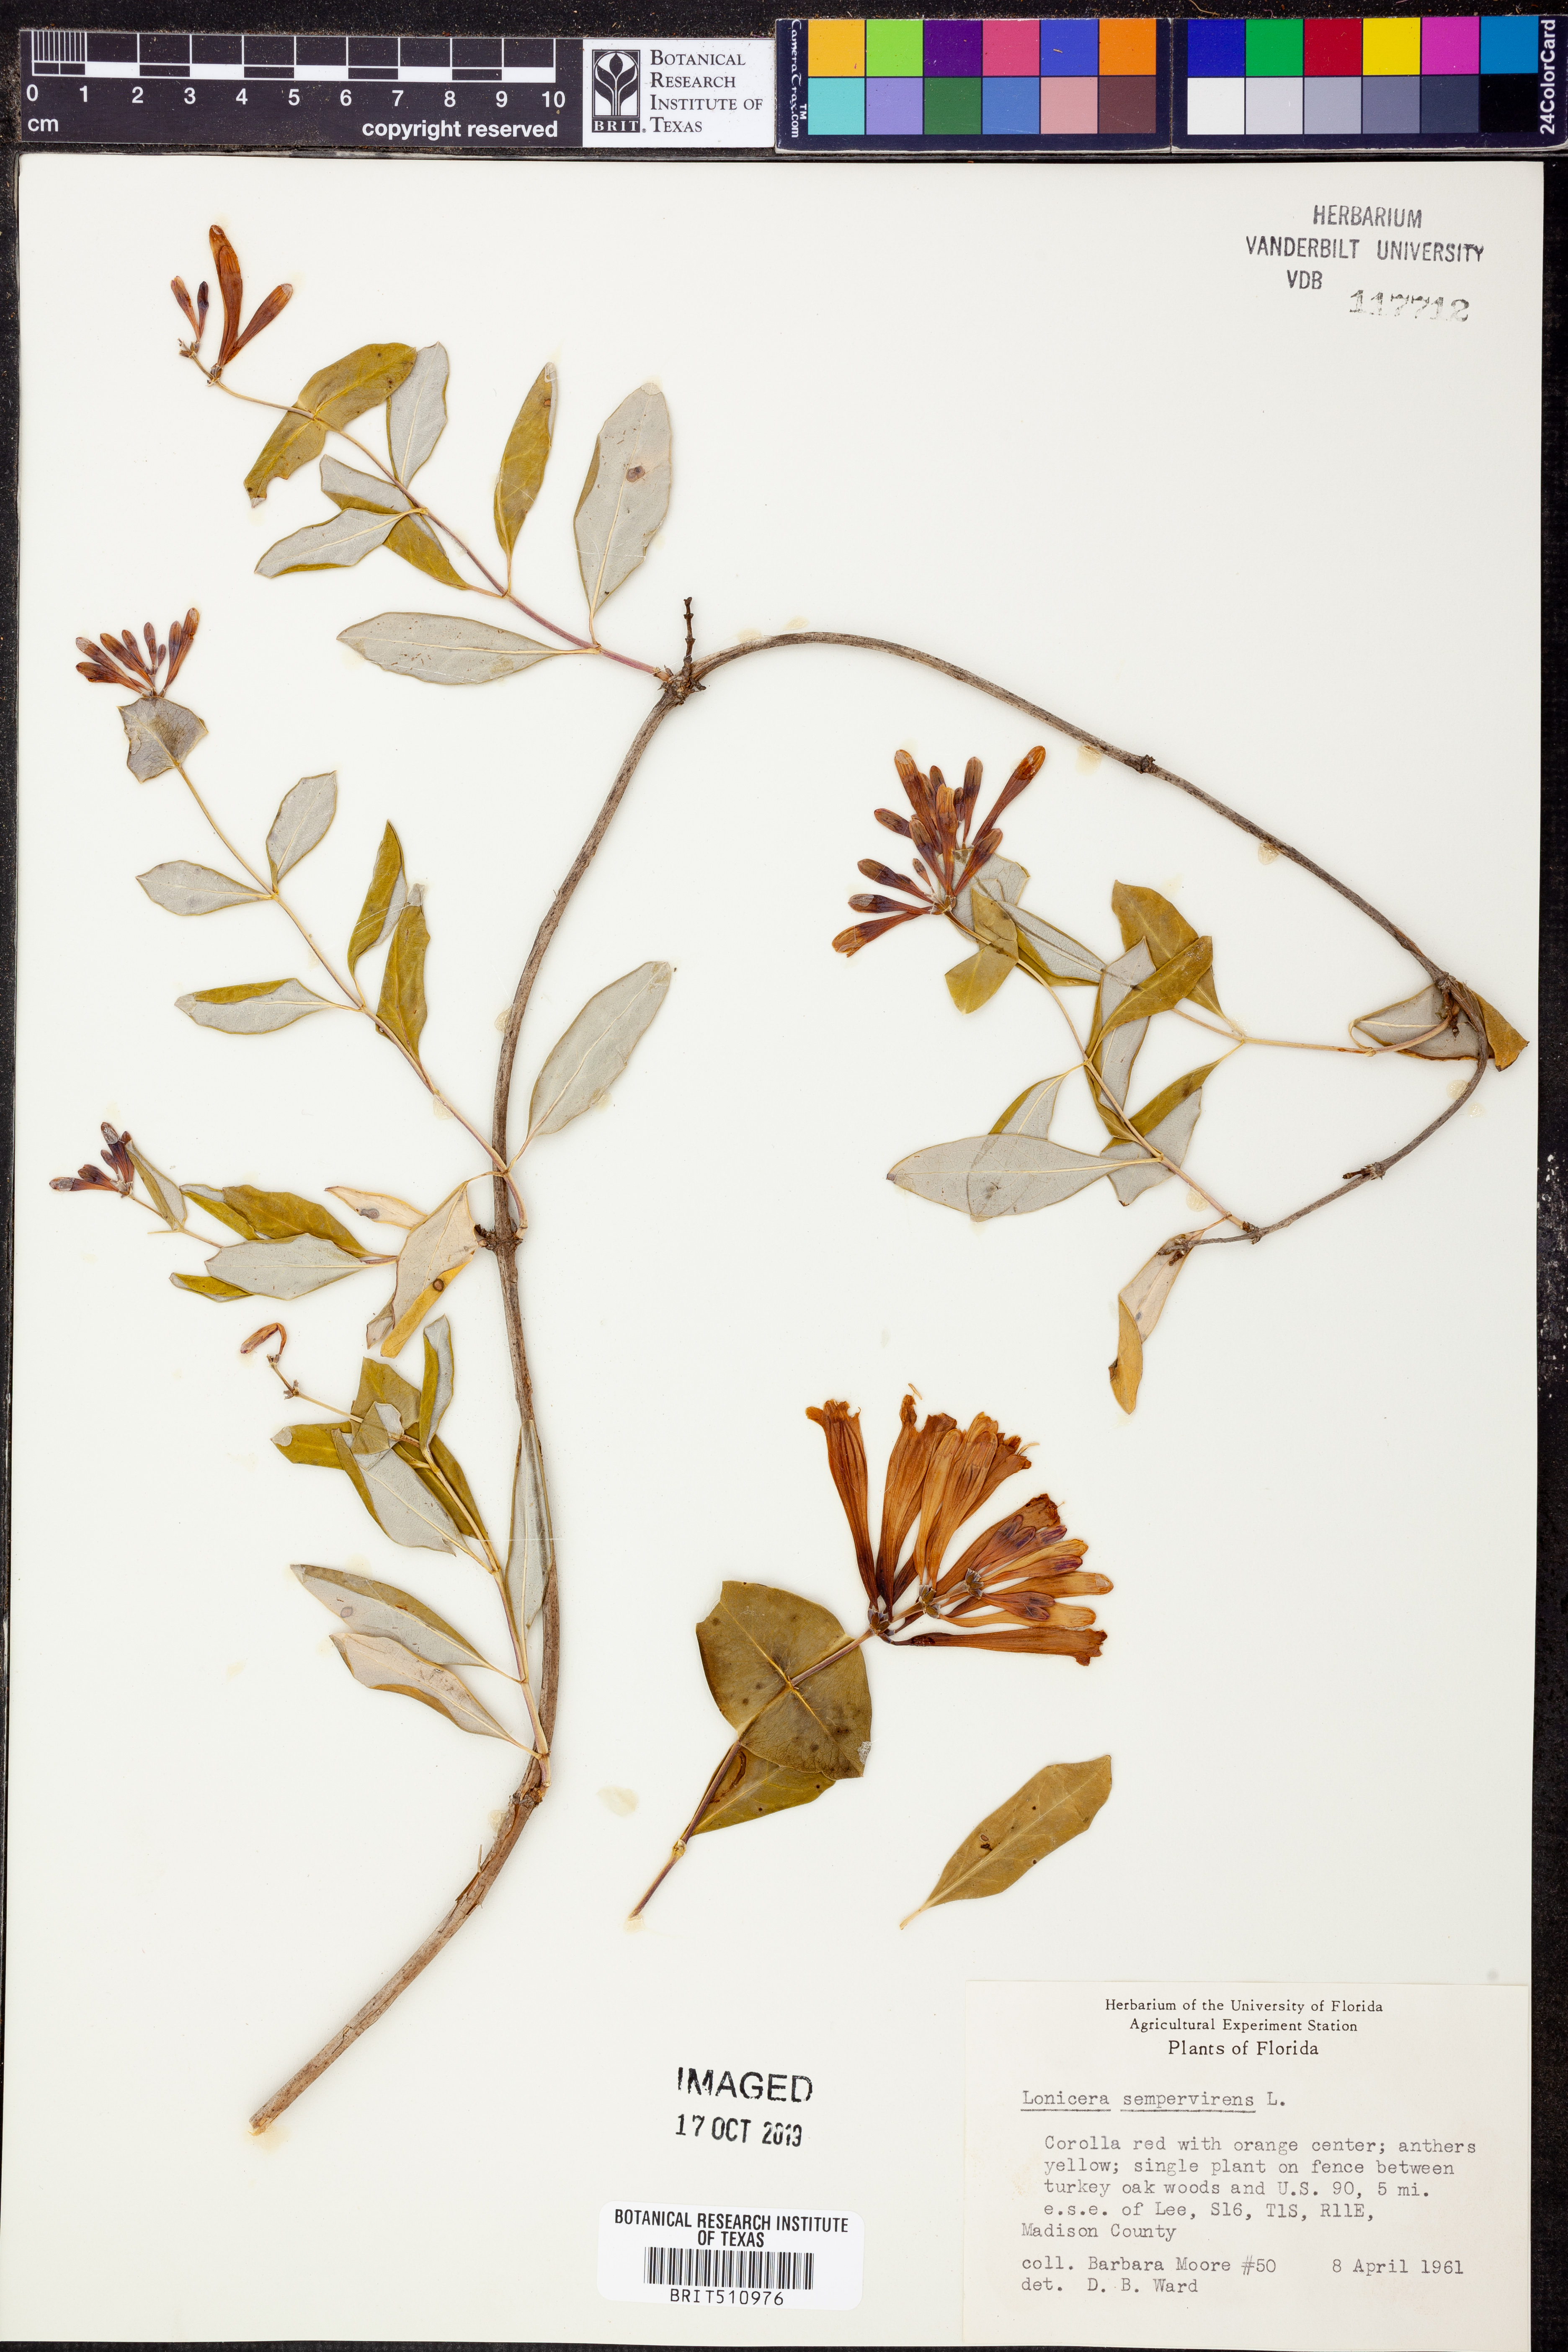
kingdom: Plantae
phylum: Tracheophyta
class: Magnoliopsida
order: Dipsacales
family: Caprifoliaceae
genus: Lonicera
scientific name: Lonicera sempervirens
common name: Coral honeysuckle
